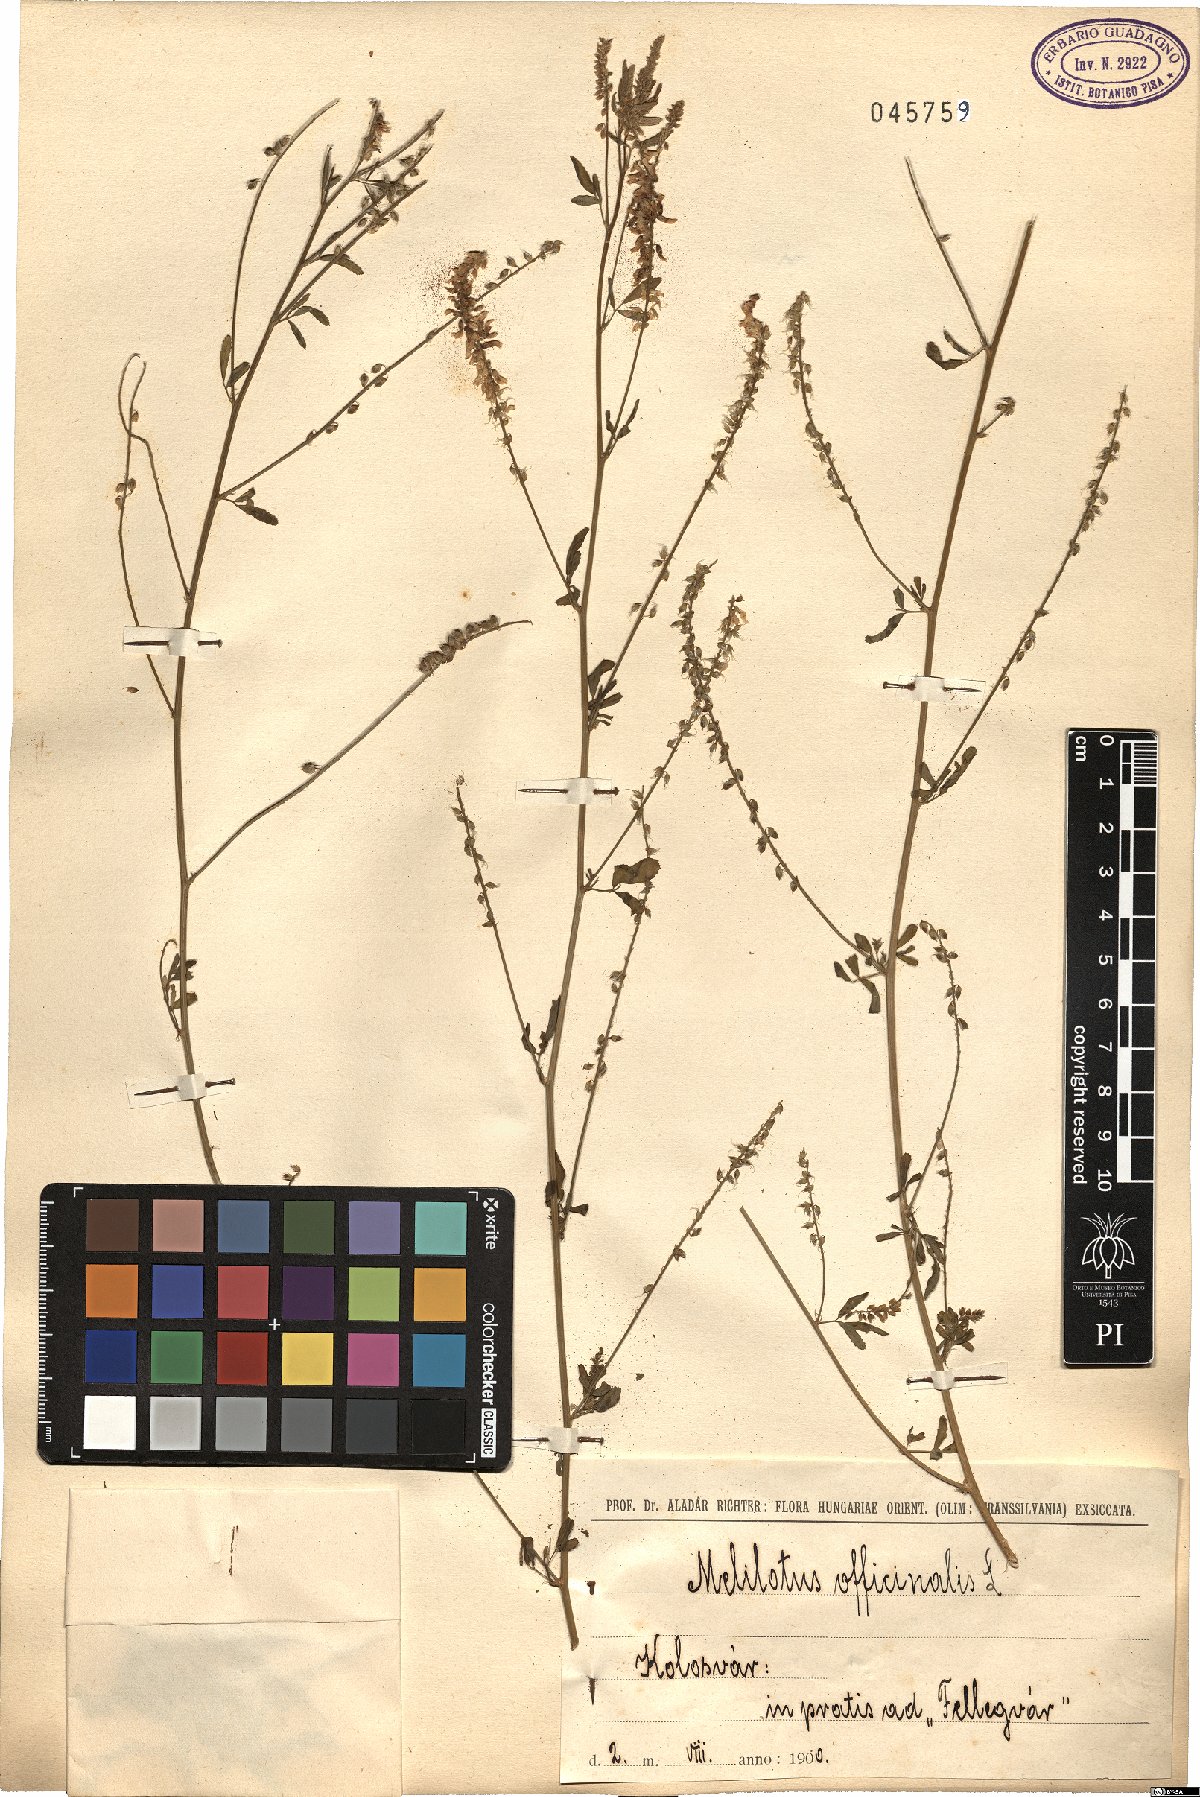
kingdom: Plantae
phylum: Tracheophyta
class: Magnoliopsida
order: Fabales
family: Fabaceae
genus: Melilotus
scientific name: Melilotus officinalis
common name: Sweetclover
